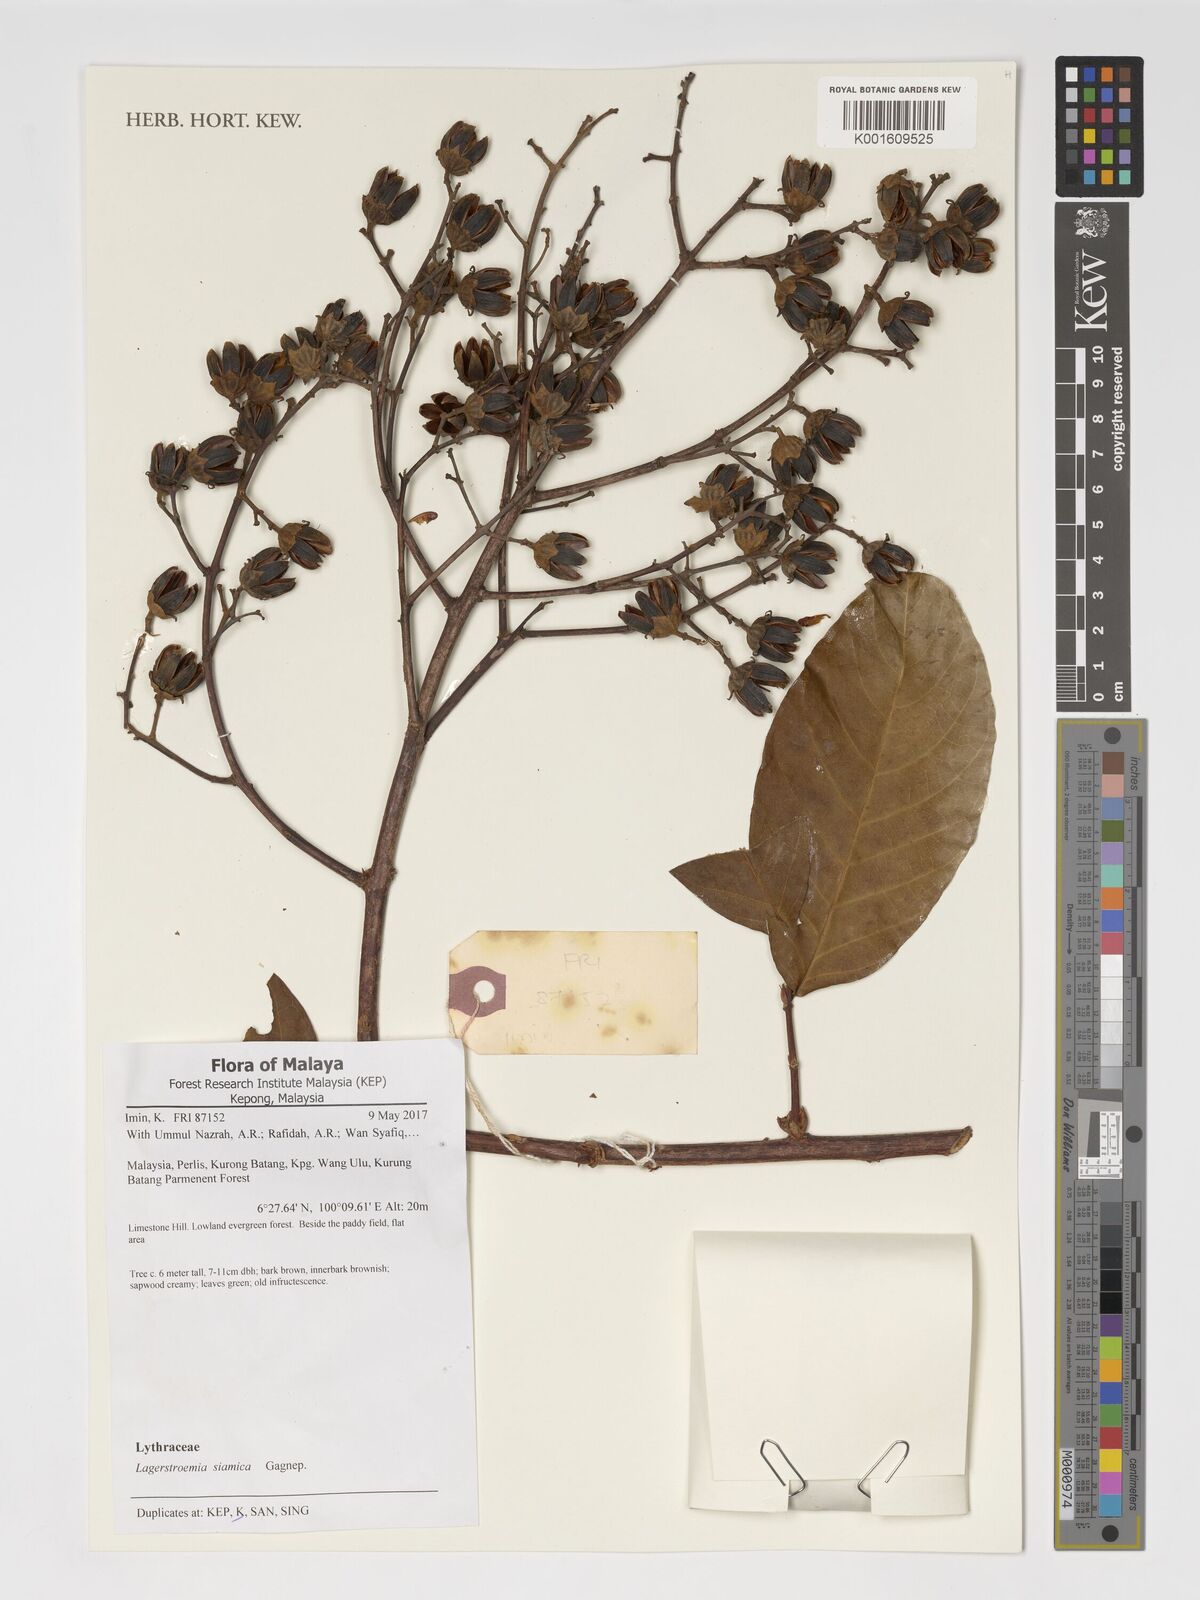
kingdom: Plantae
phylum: Tracheophyta
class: Magnoliopsida
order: Myrtales
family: Lythraceae
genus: Lagerstroemia
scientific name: Lagerstroemia floribunda
